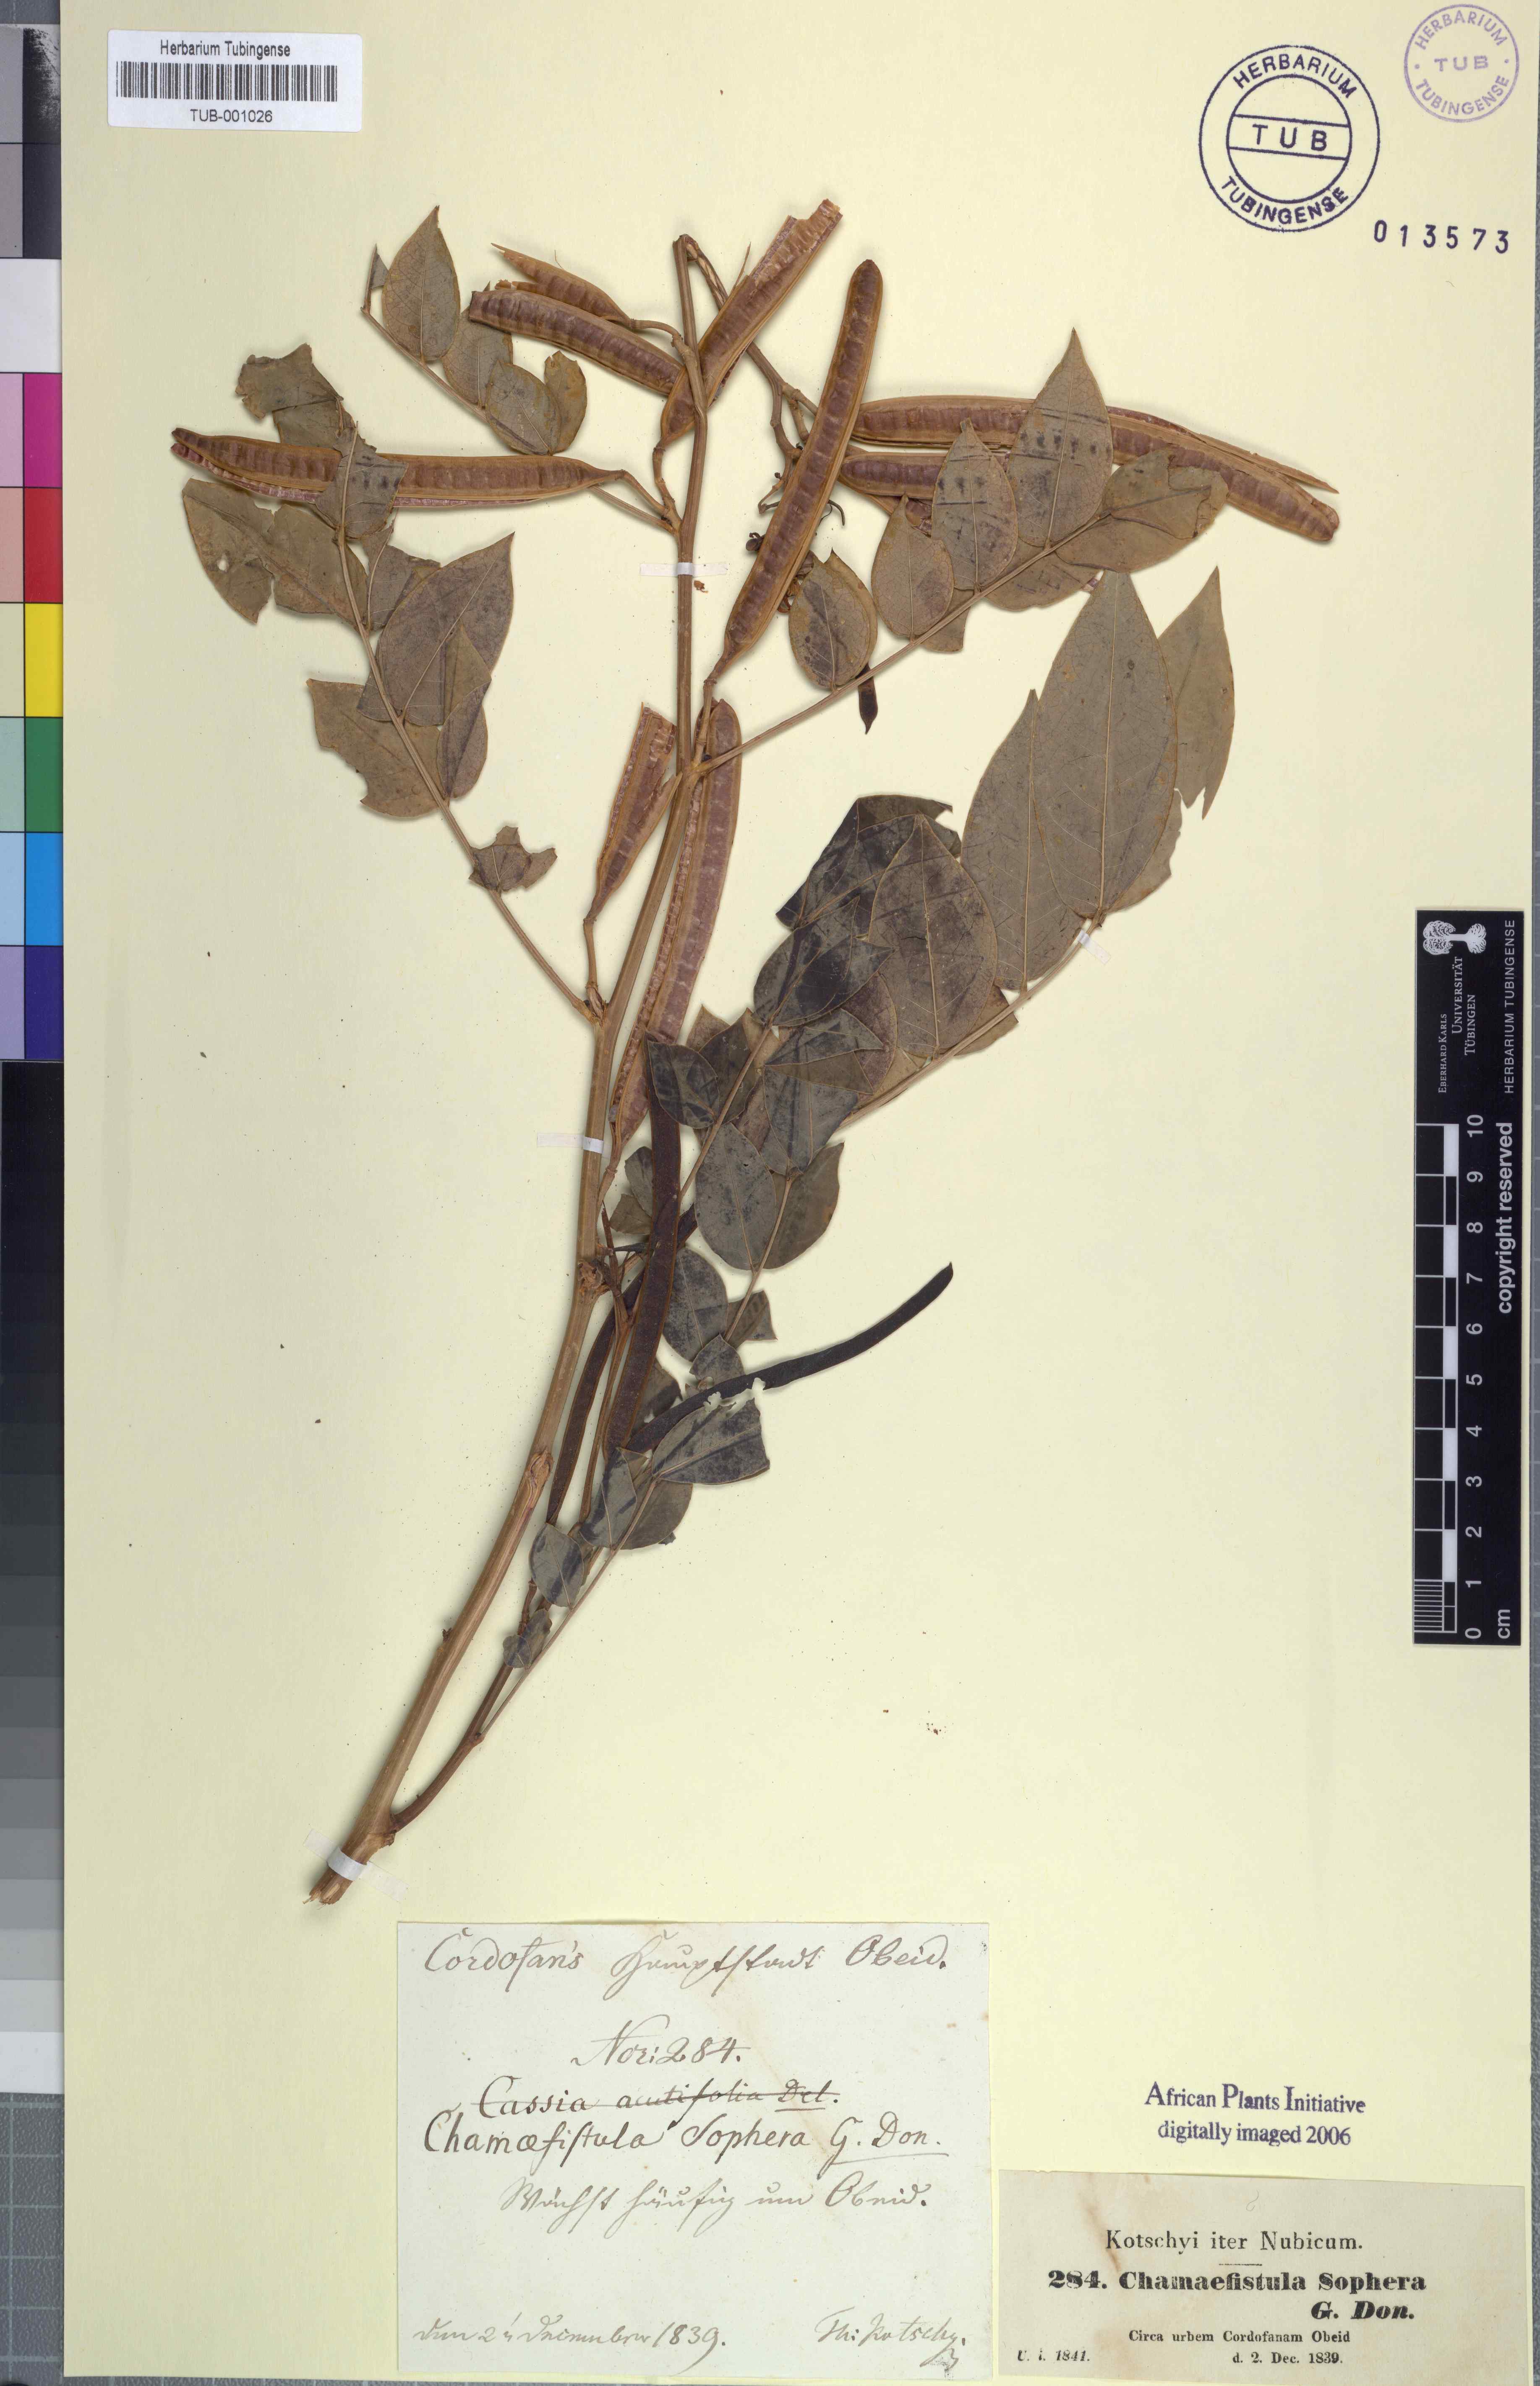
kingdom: Plantae
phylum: Tracheophyta
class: Magnoliopsida
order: Fabales
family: Fabaceae
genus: Senna
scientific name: Senna sophera
